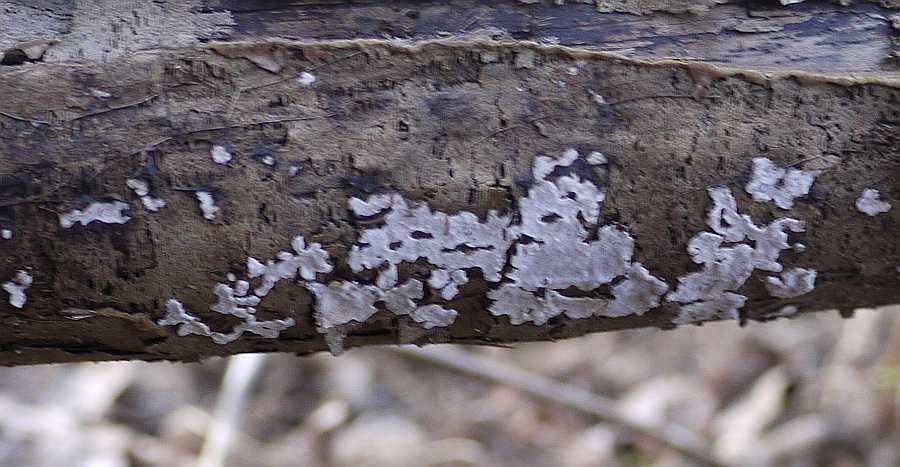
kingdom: Fungi
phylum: Basidiomycota
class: Agaricomycetes
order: Russulales
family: Peniophoraceae
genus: Peniophora
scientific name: Peniophora polygonia
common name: polygon-voksskind
